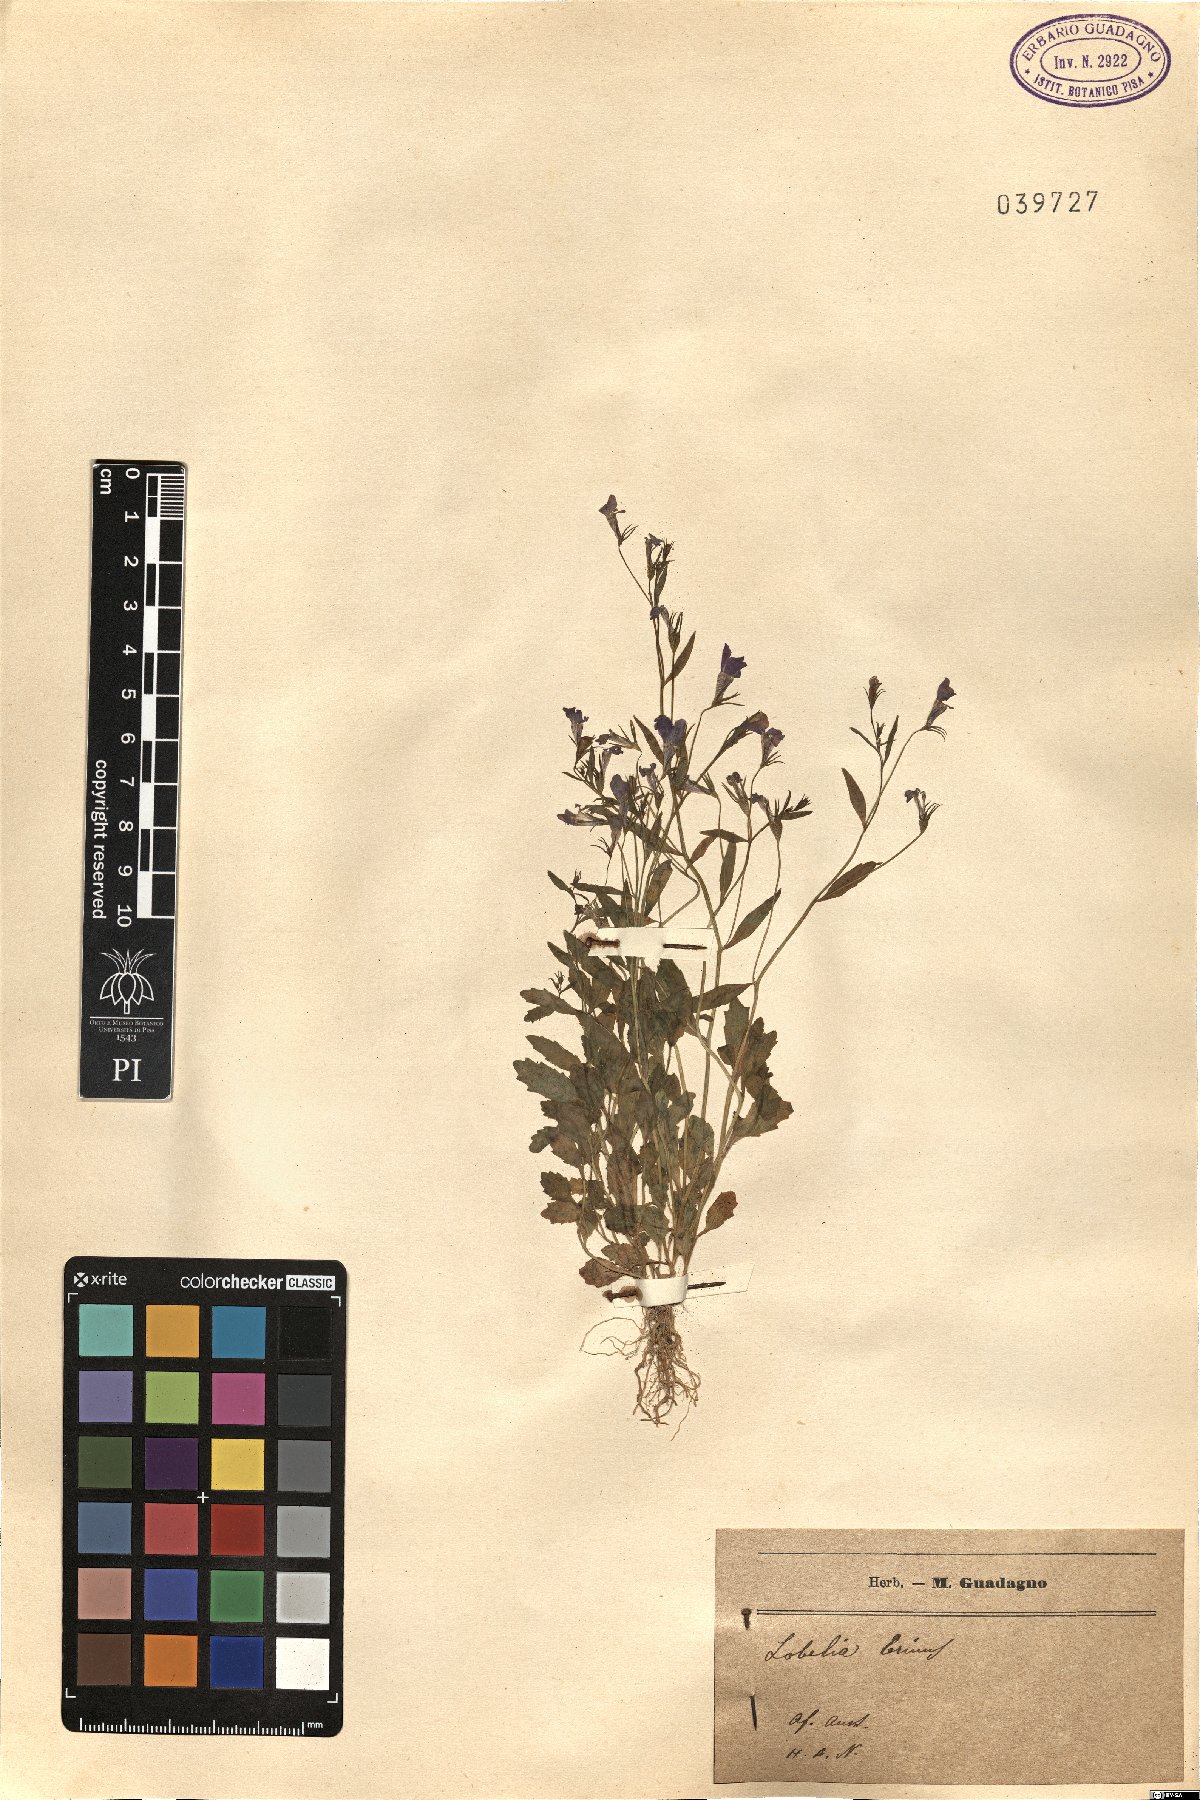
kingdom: Plantae
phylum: Tracheophyta
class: Magnoliopsida
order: Asterales
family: Campanulaceae
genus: Lobelia
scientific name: Lobelia erinus
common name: Edging lobelia
